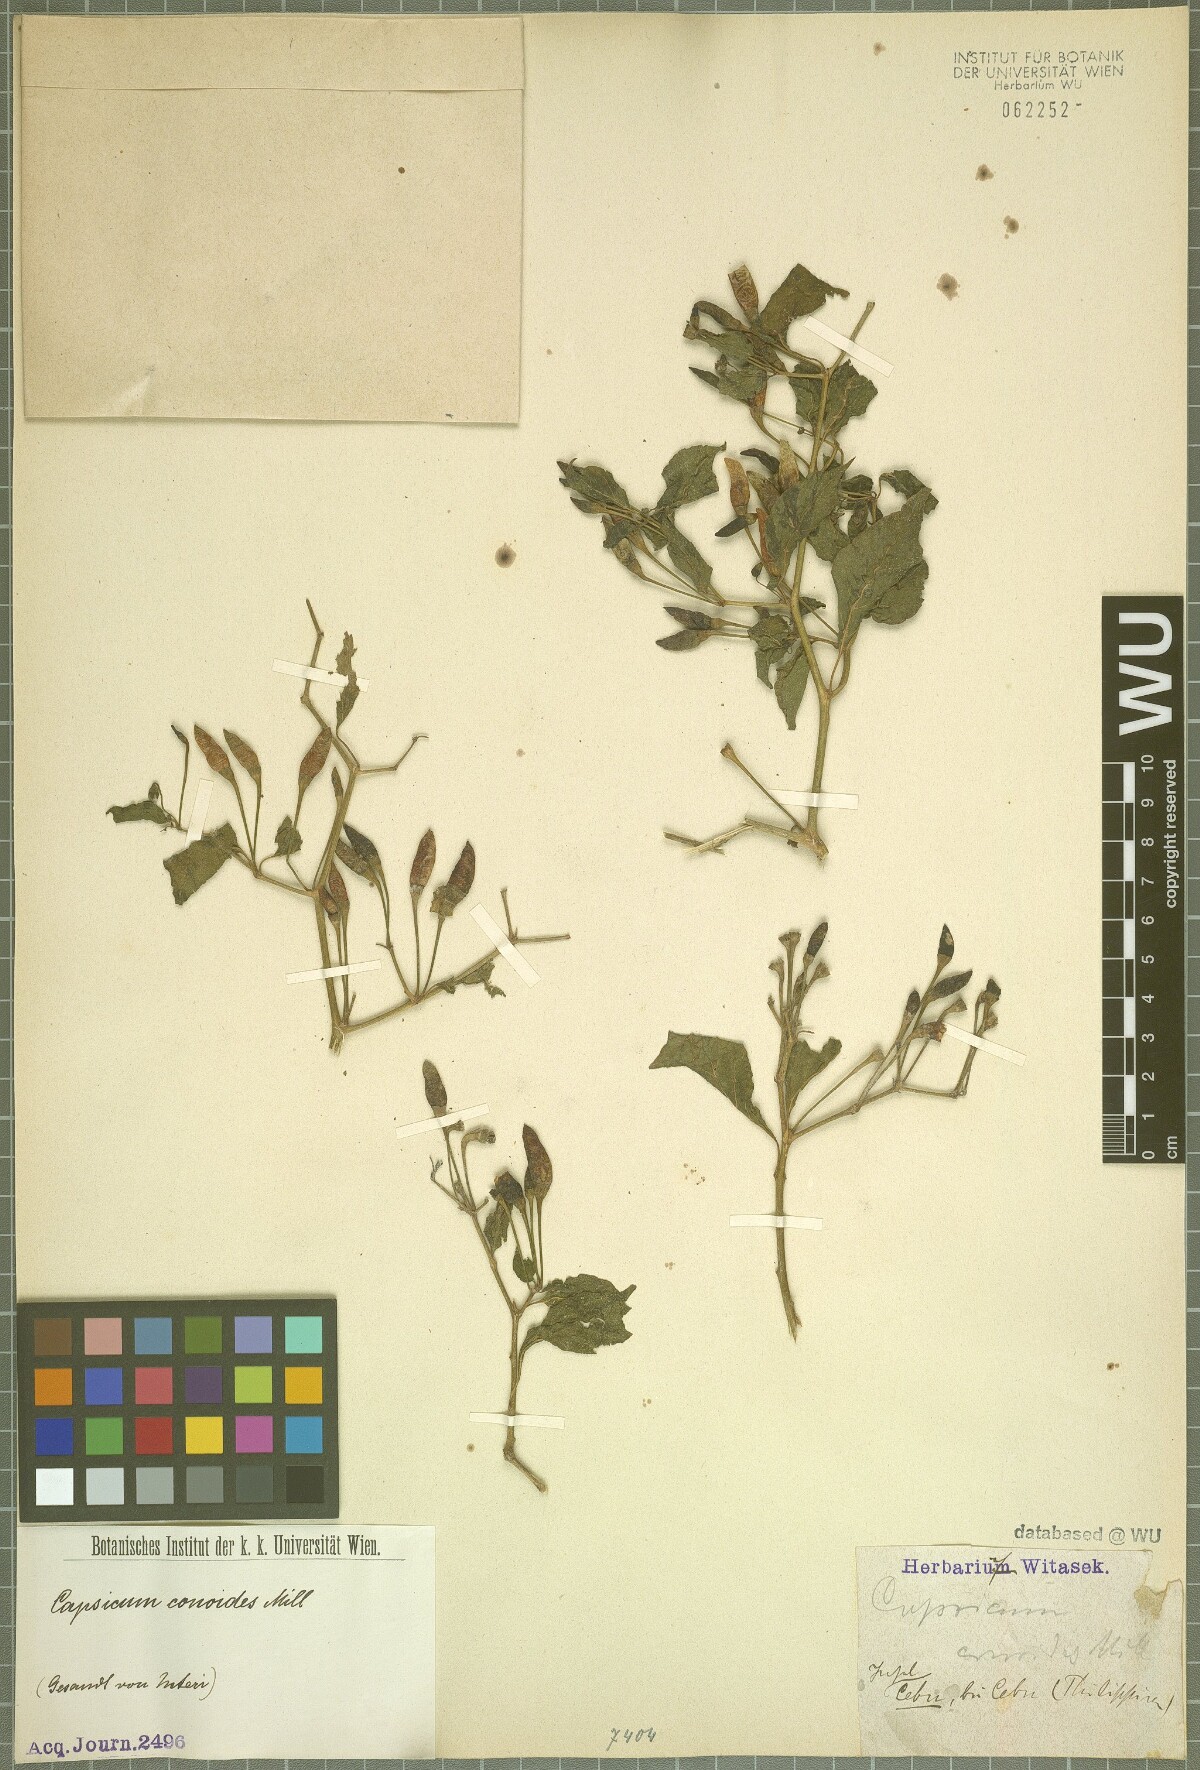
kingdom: Plantae
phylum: Tracheophyta
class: Magnoliopsida
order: Solanales
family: Solanaceae
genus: Capsicum
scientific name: Capsicum annuum
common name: Sweet pepper
